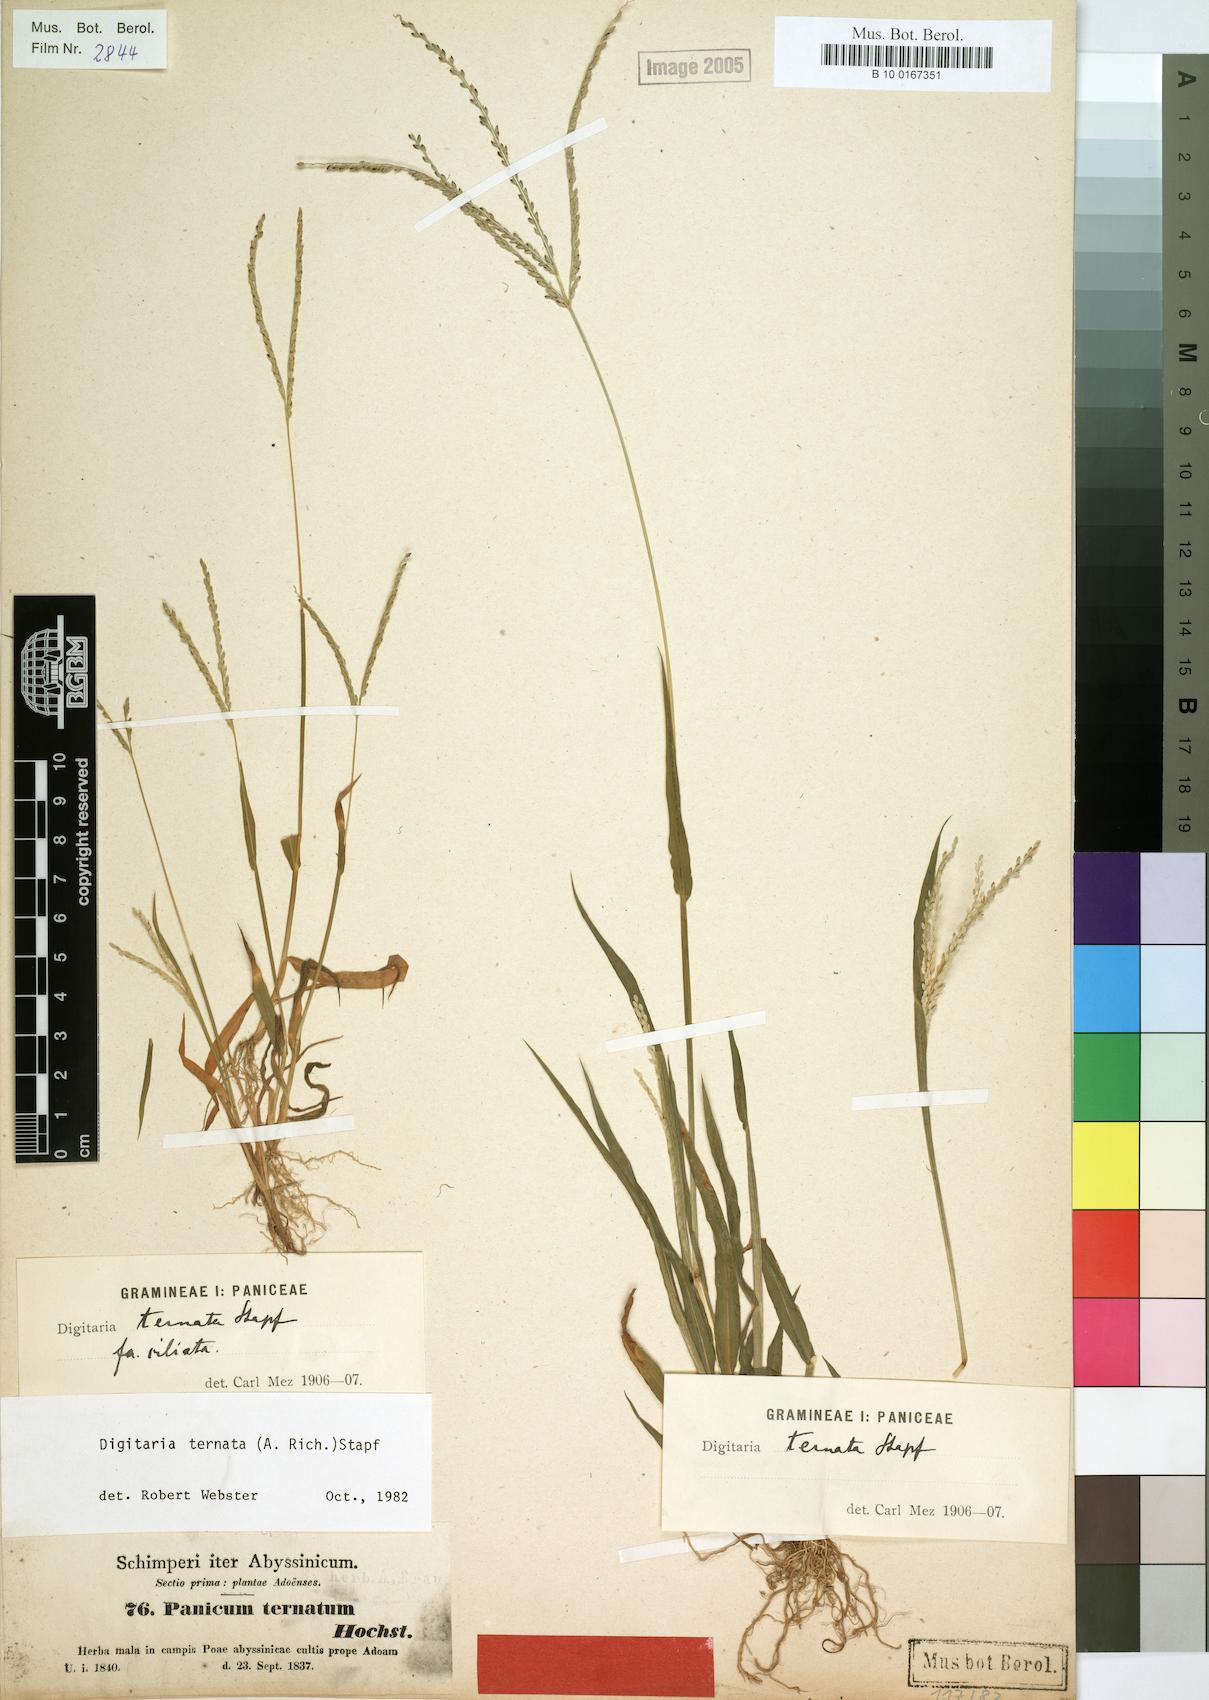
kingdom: Plantae
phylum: Tracheophyta
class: Liliopsida
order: Poales
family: Poaceae
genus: Digitaria
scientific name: Digitaria ternata
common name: Blackseed crabgrass
